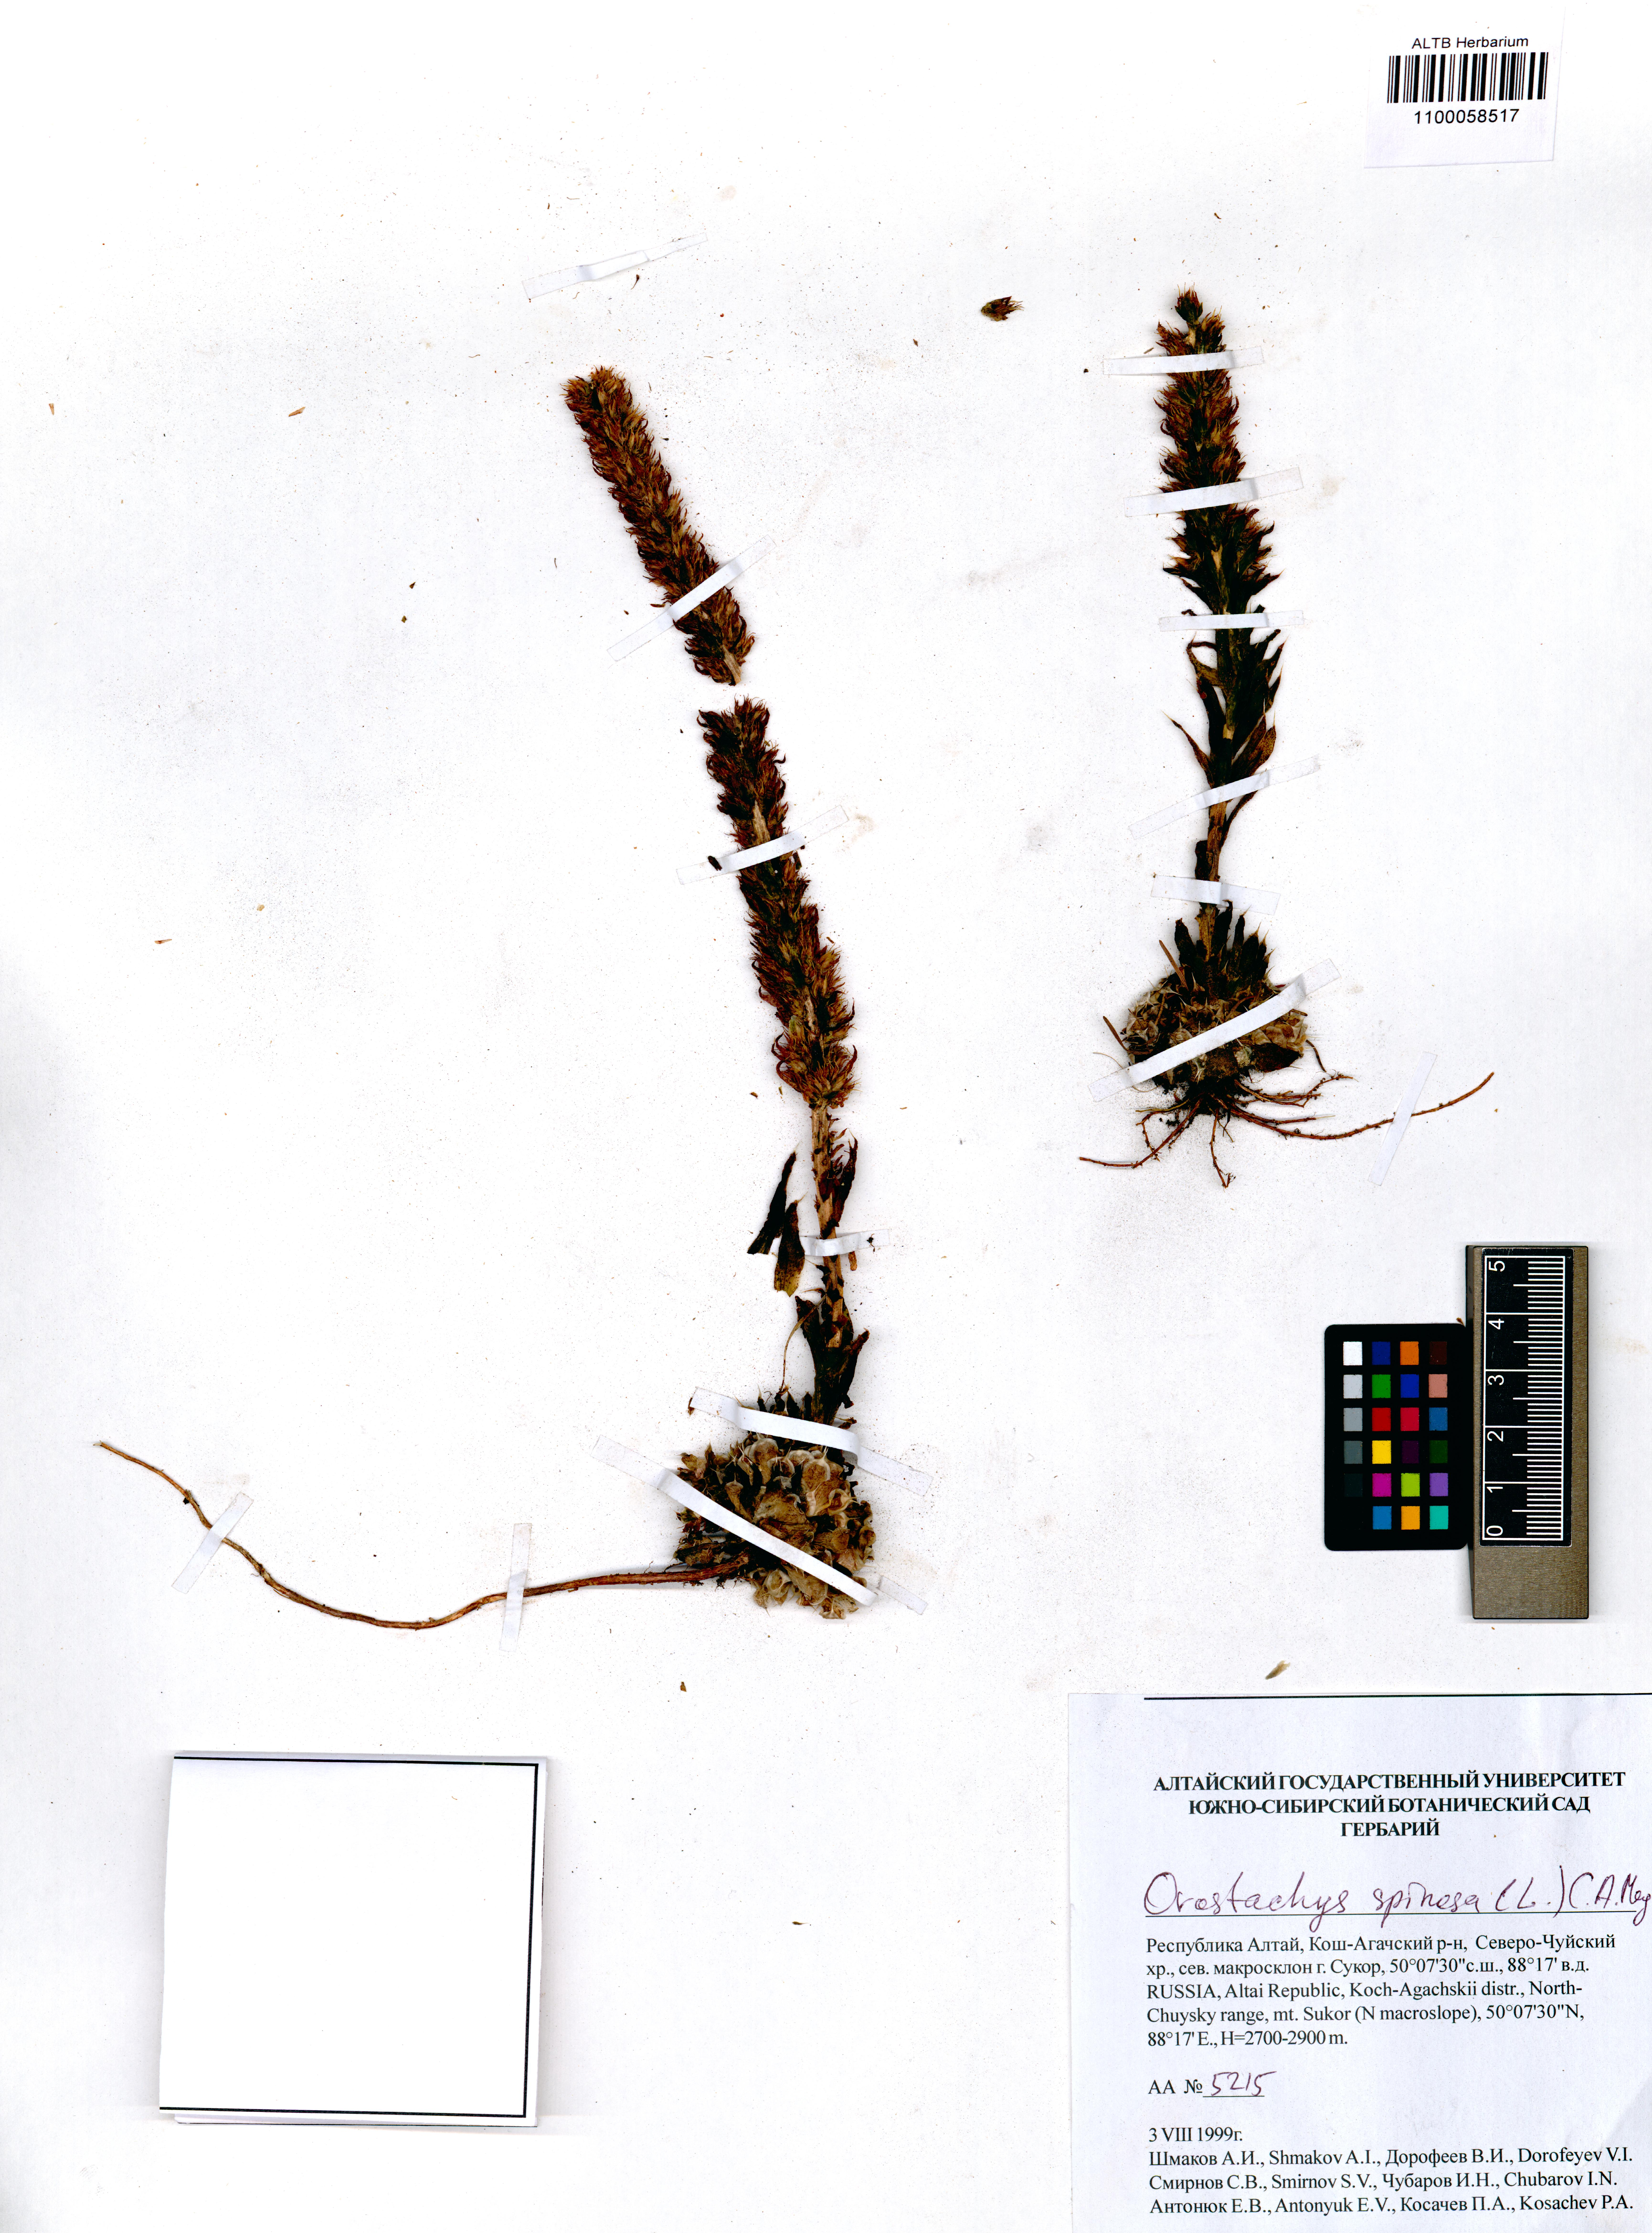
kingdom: Plantae
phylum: Tracheophyta
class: Magnoliopsida
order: Saxifragales
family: Crassulaceae
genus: Orostachys
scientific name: Orostachys spinosa
